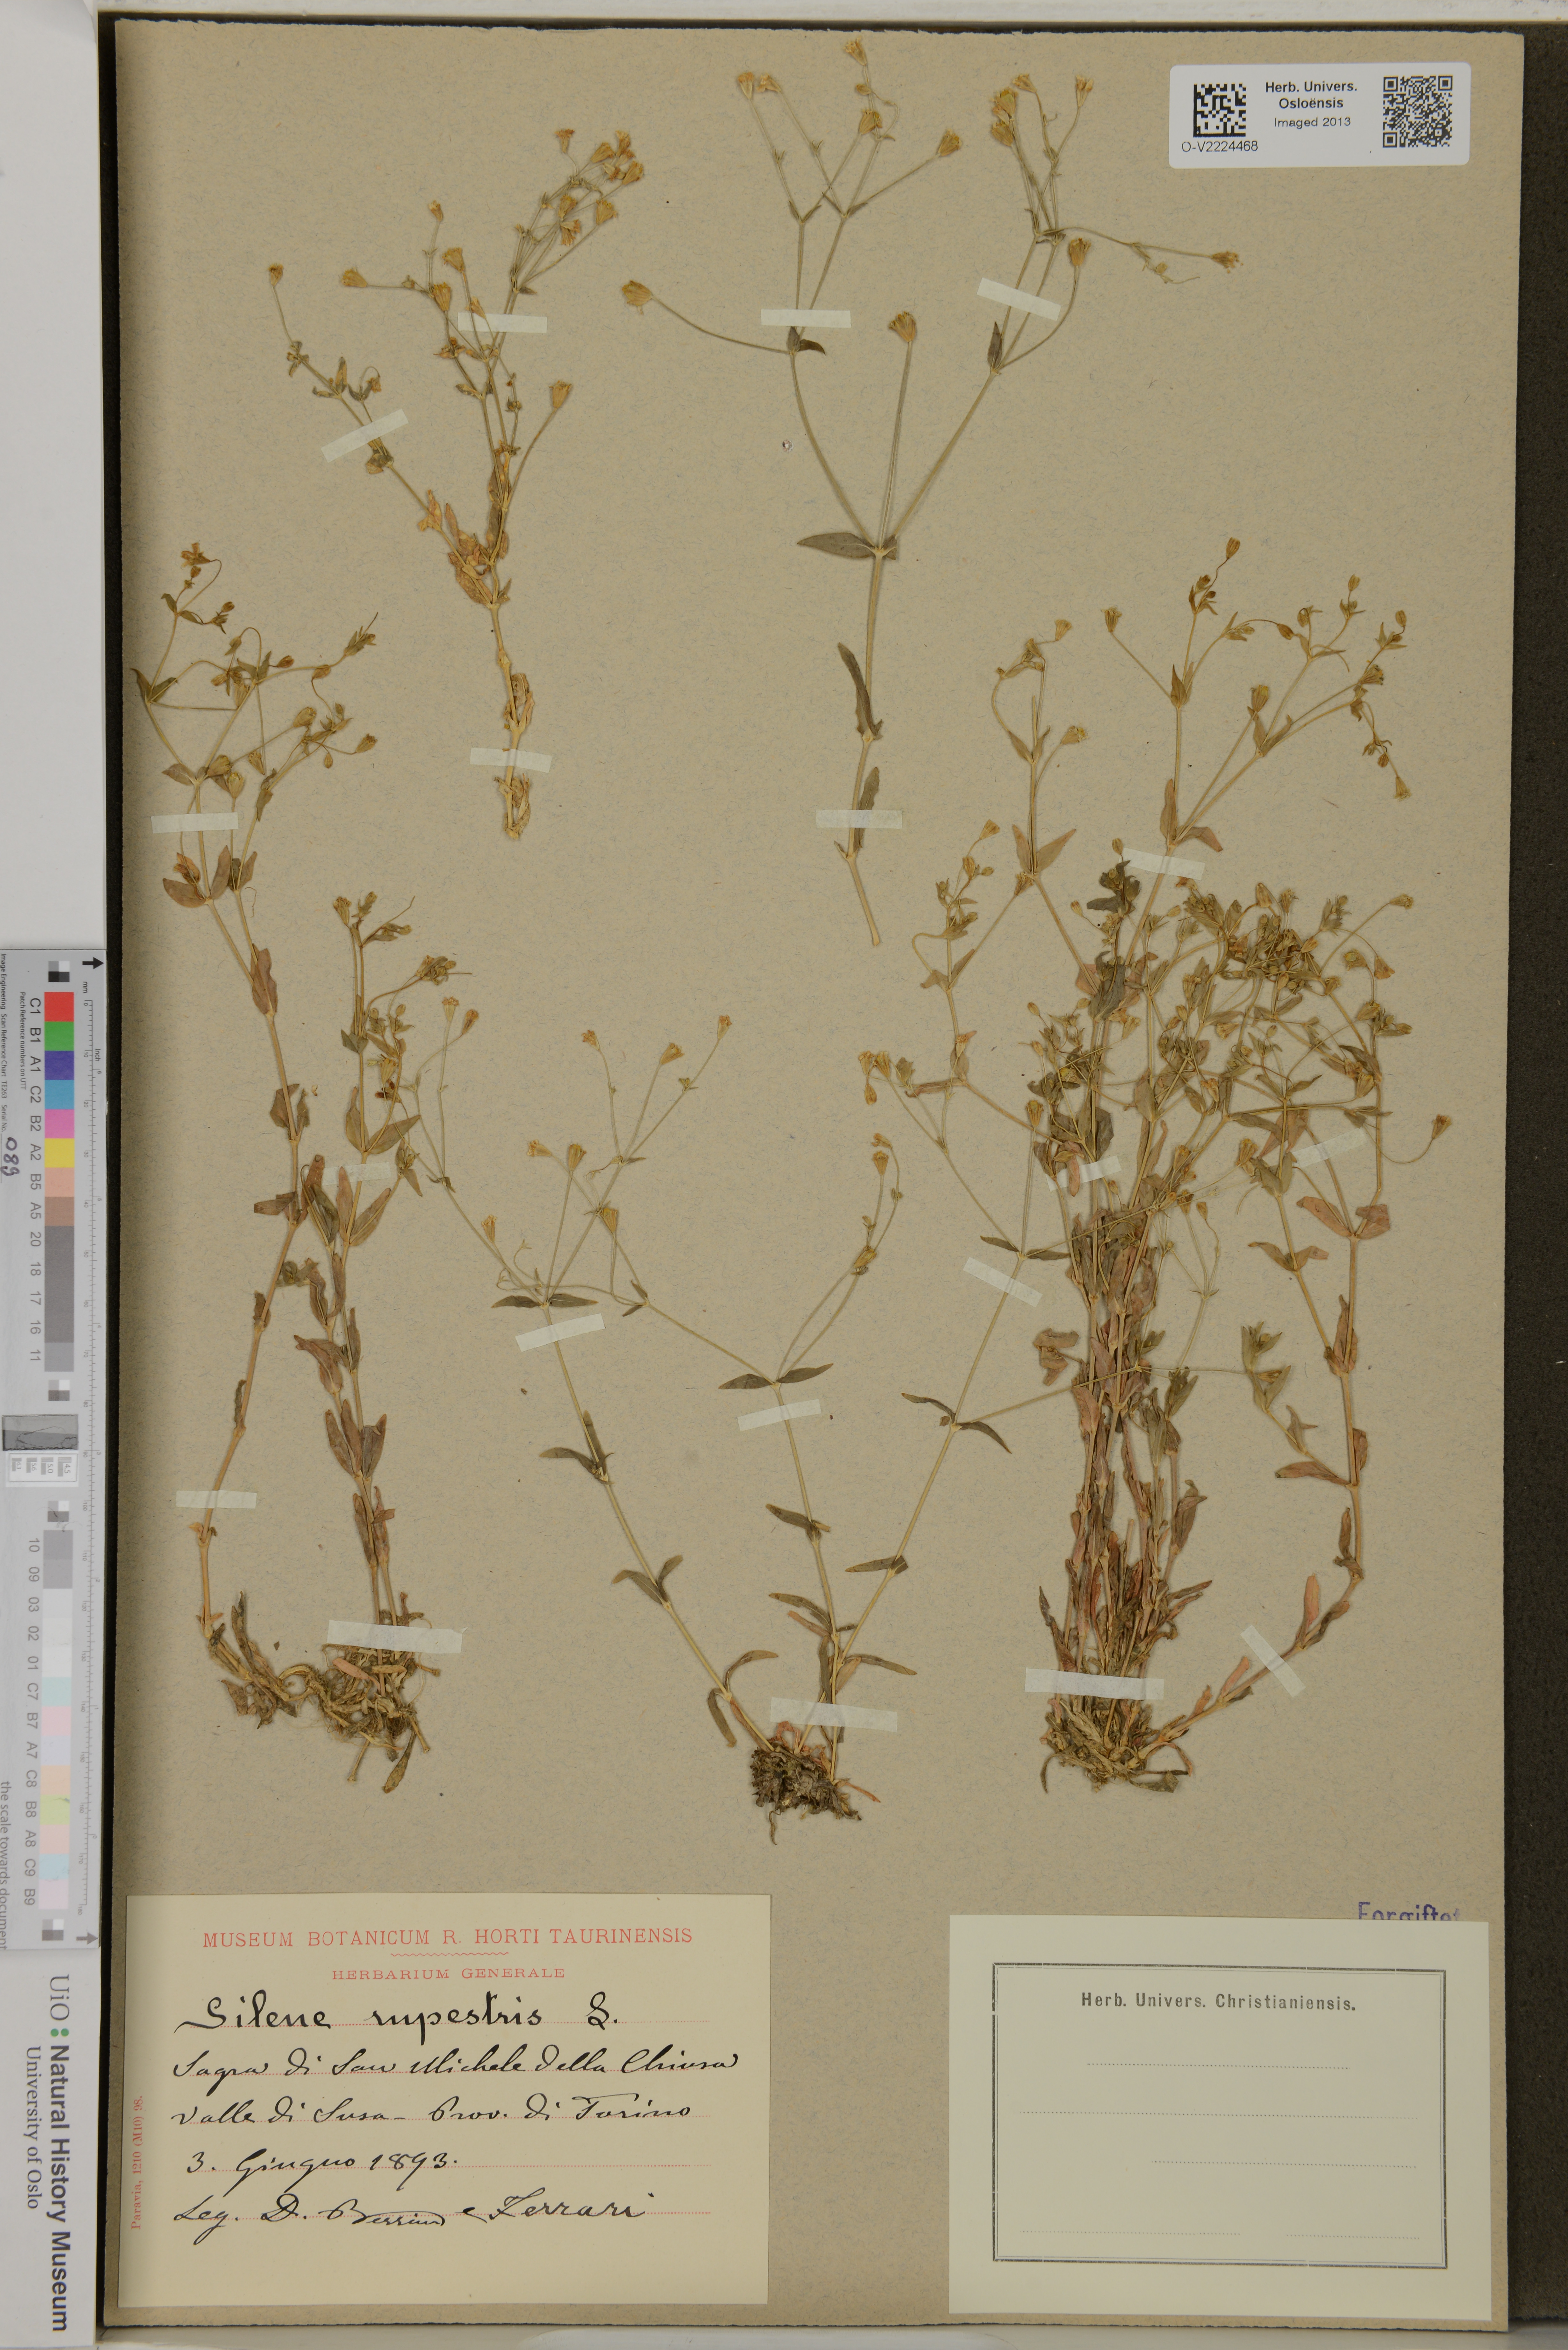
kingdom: Plantae
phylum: Tracheophyta
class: Magnoliopsida
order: Caryophyllales
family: Caryophyllaceae
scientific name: Caryophyllaceae
